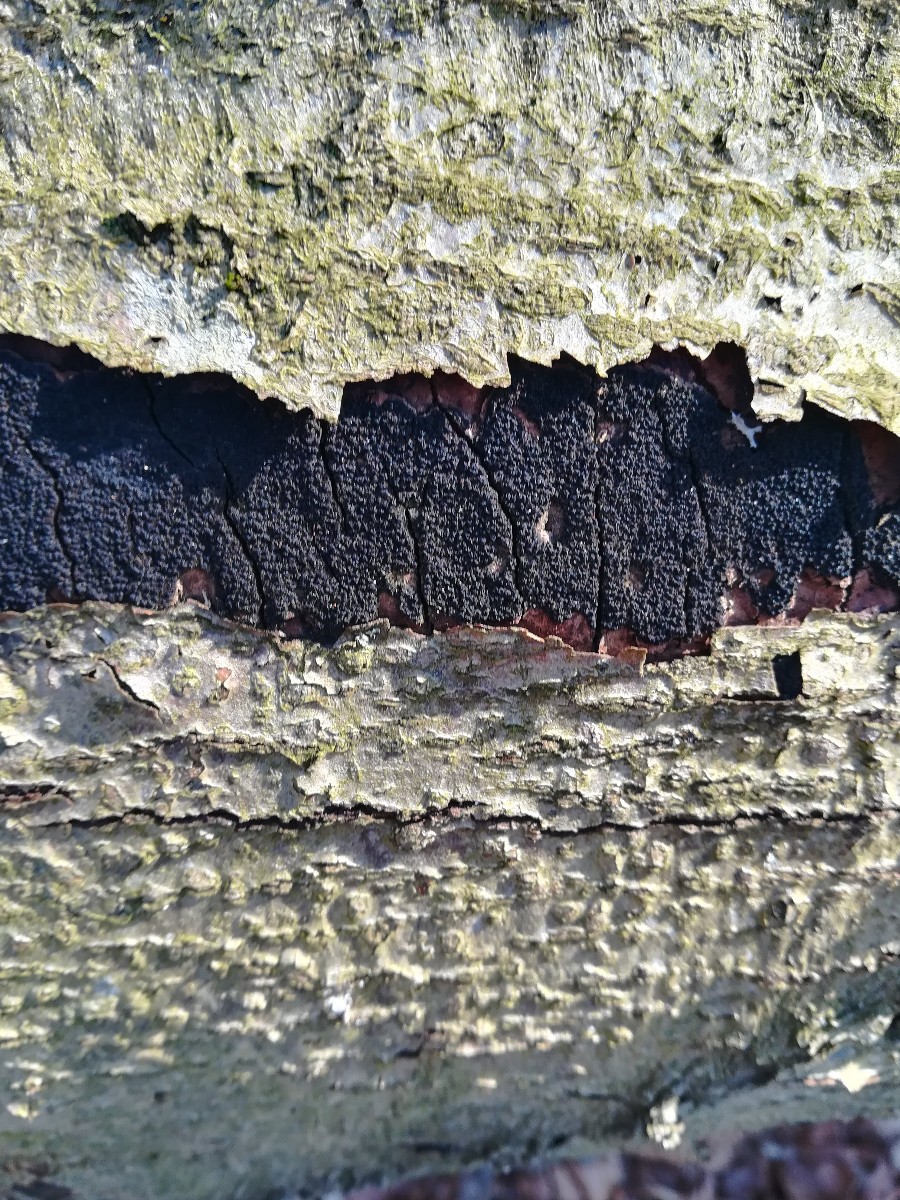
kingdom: Fungi
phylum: Ascomycota
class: Sordariomycetes
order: Xylariales
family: Diatrypaceae
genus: Eutypa
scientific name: Eutypa spinosa
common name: grov kulskorpe
